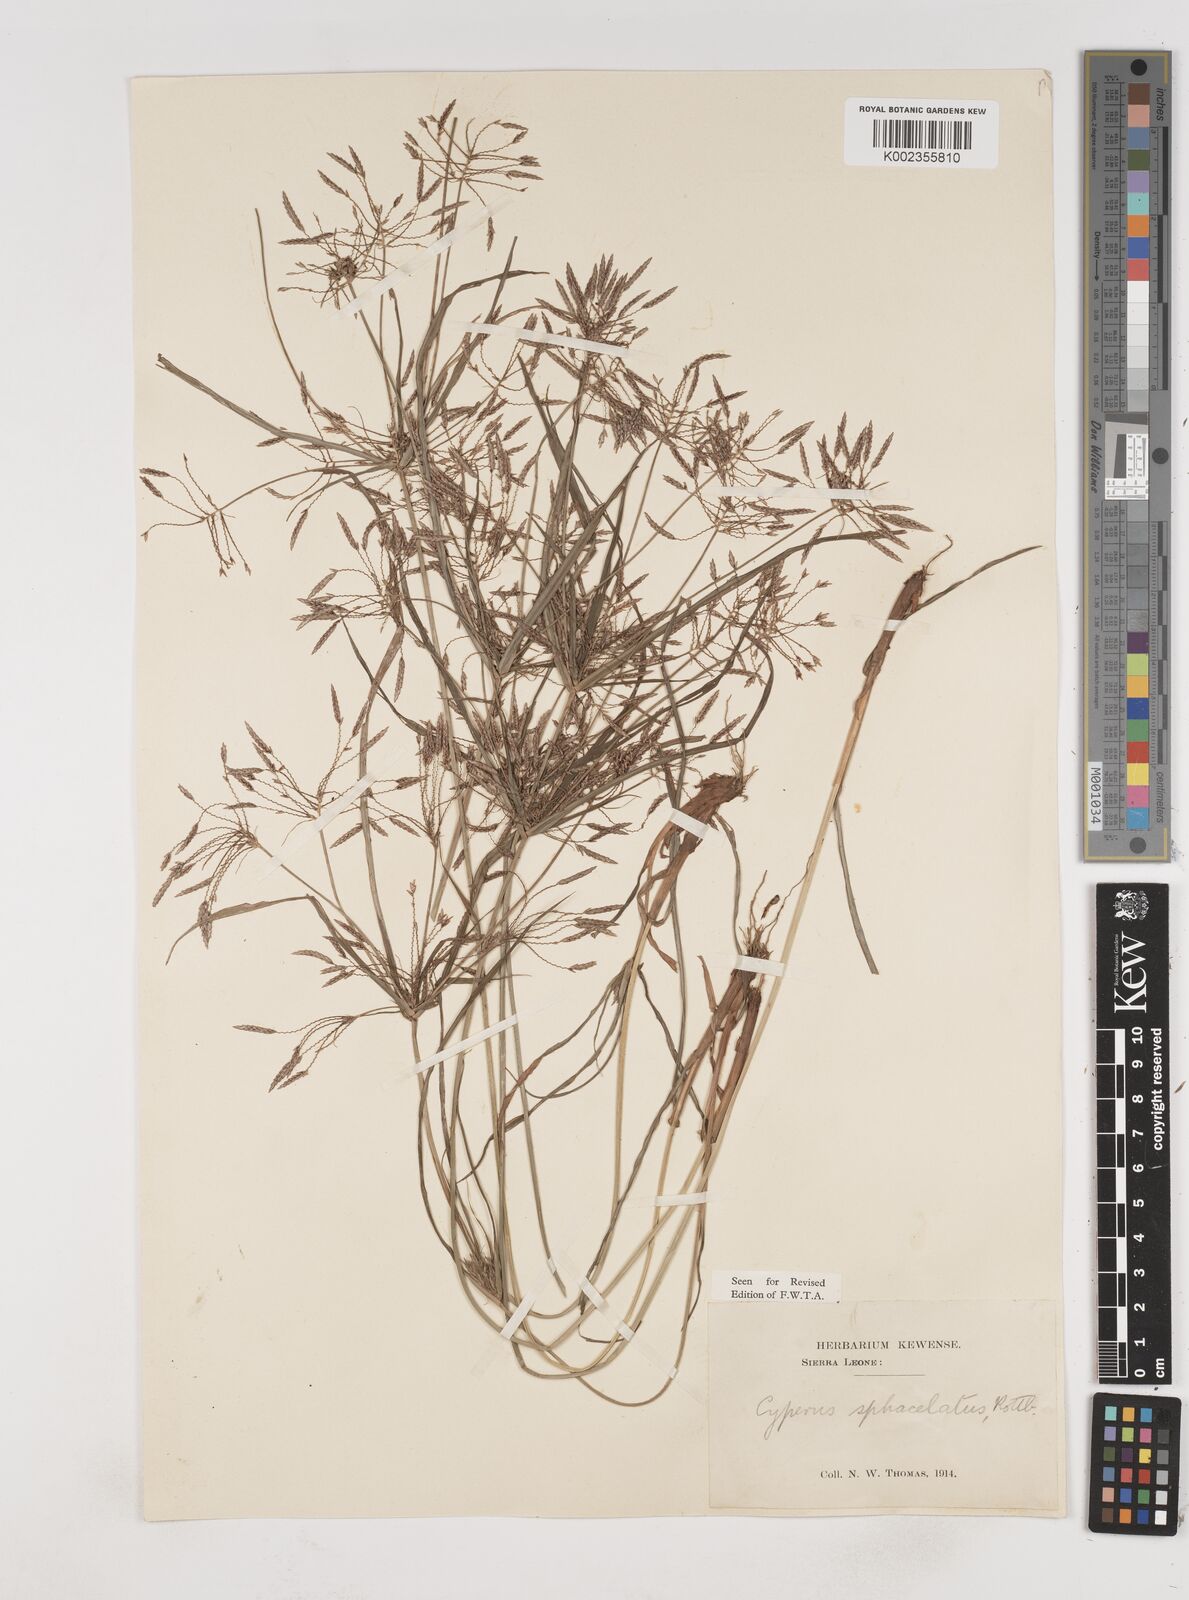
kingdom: Plantae
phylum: Tracheophyta
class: Liliopsida
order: Poales
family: Cyperaceae
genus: Cyperus
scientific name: Cyperus sphacelatus
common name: Roadside flatsedge
